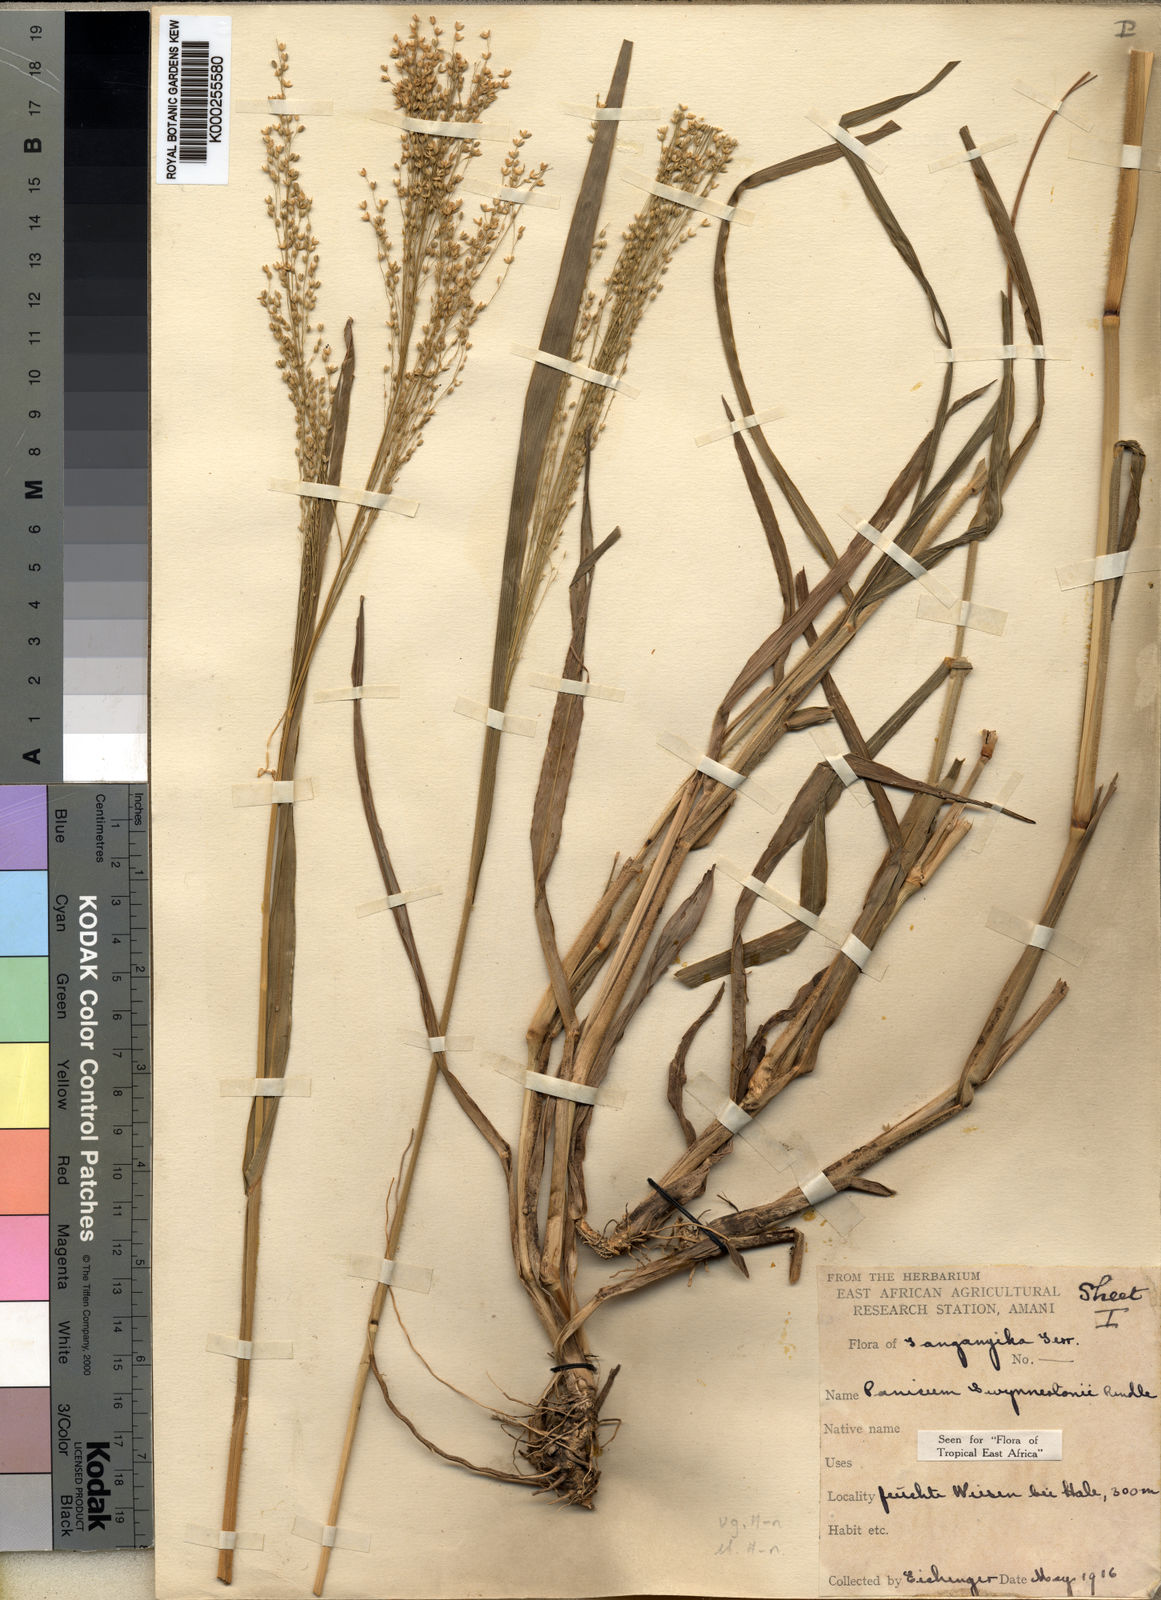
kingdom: Plantae
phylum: Tracheophyta
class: Liliopsida
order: Poales
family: Poaceae
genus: Panicum
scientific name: Panicum merkeri
